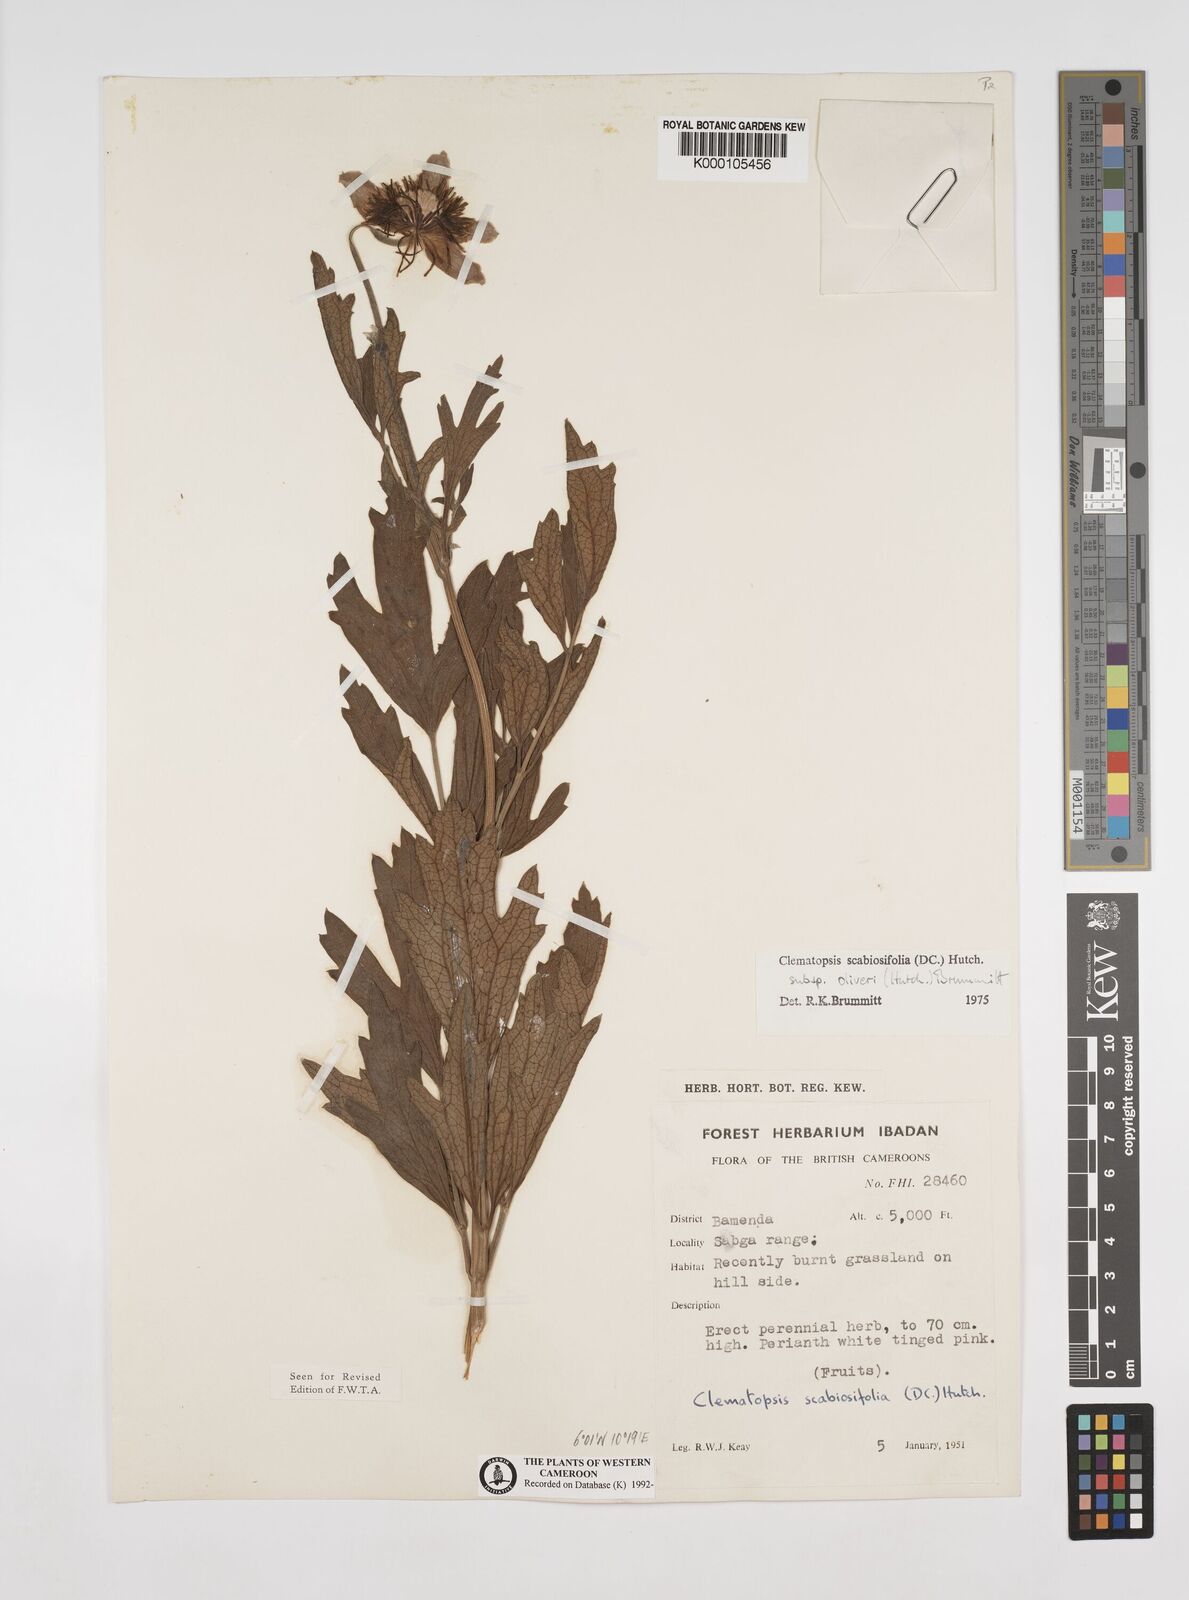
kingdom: Plantae
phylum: Tracheophyta
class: Magnoliopsida
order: Ranunculales
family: Ranunculaceae
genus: Clematis
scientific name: Clematis villosa
